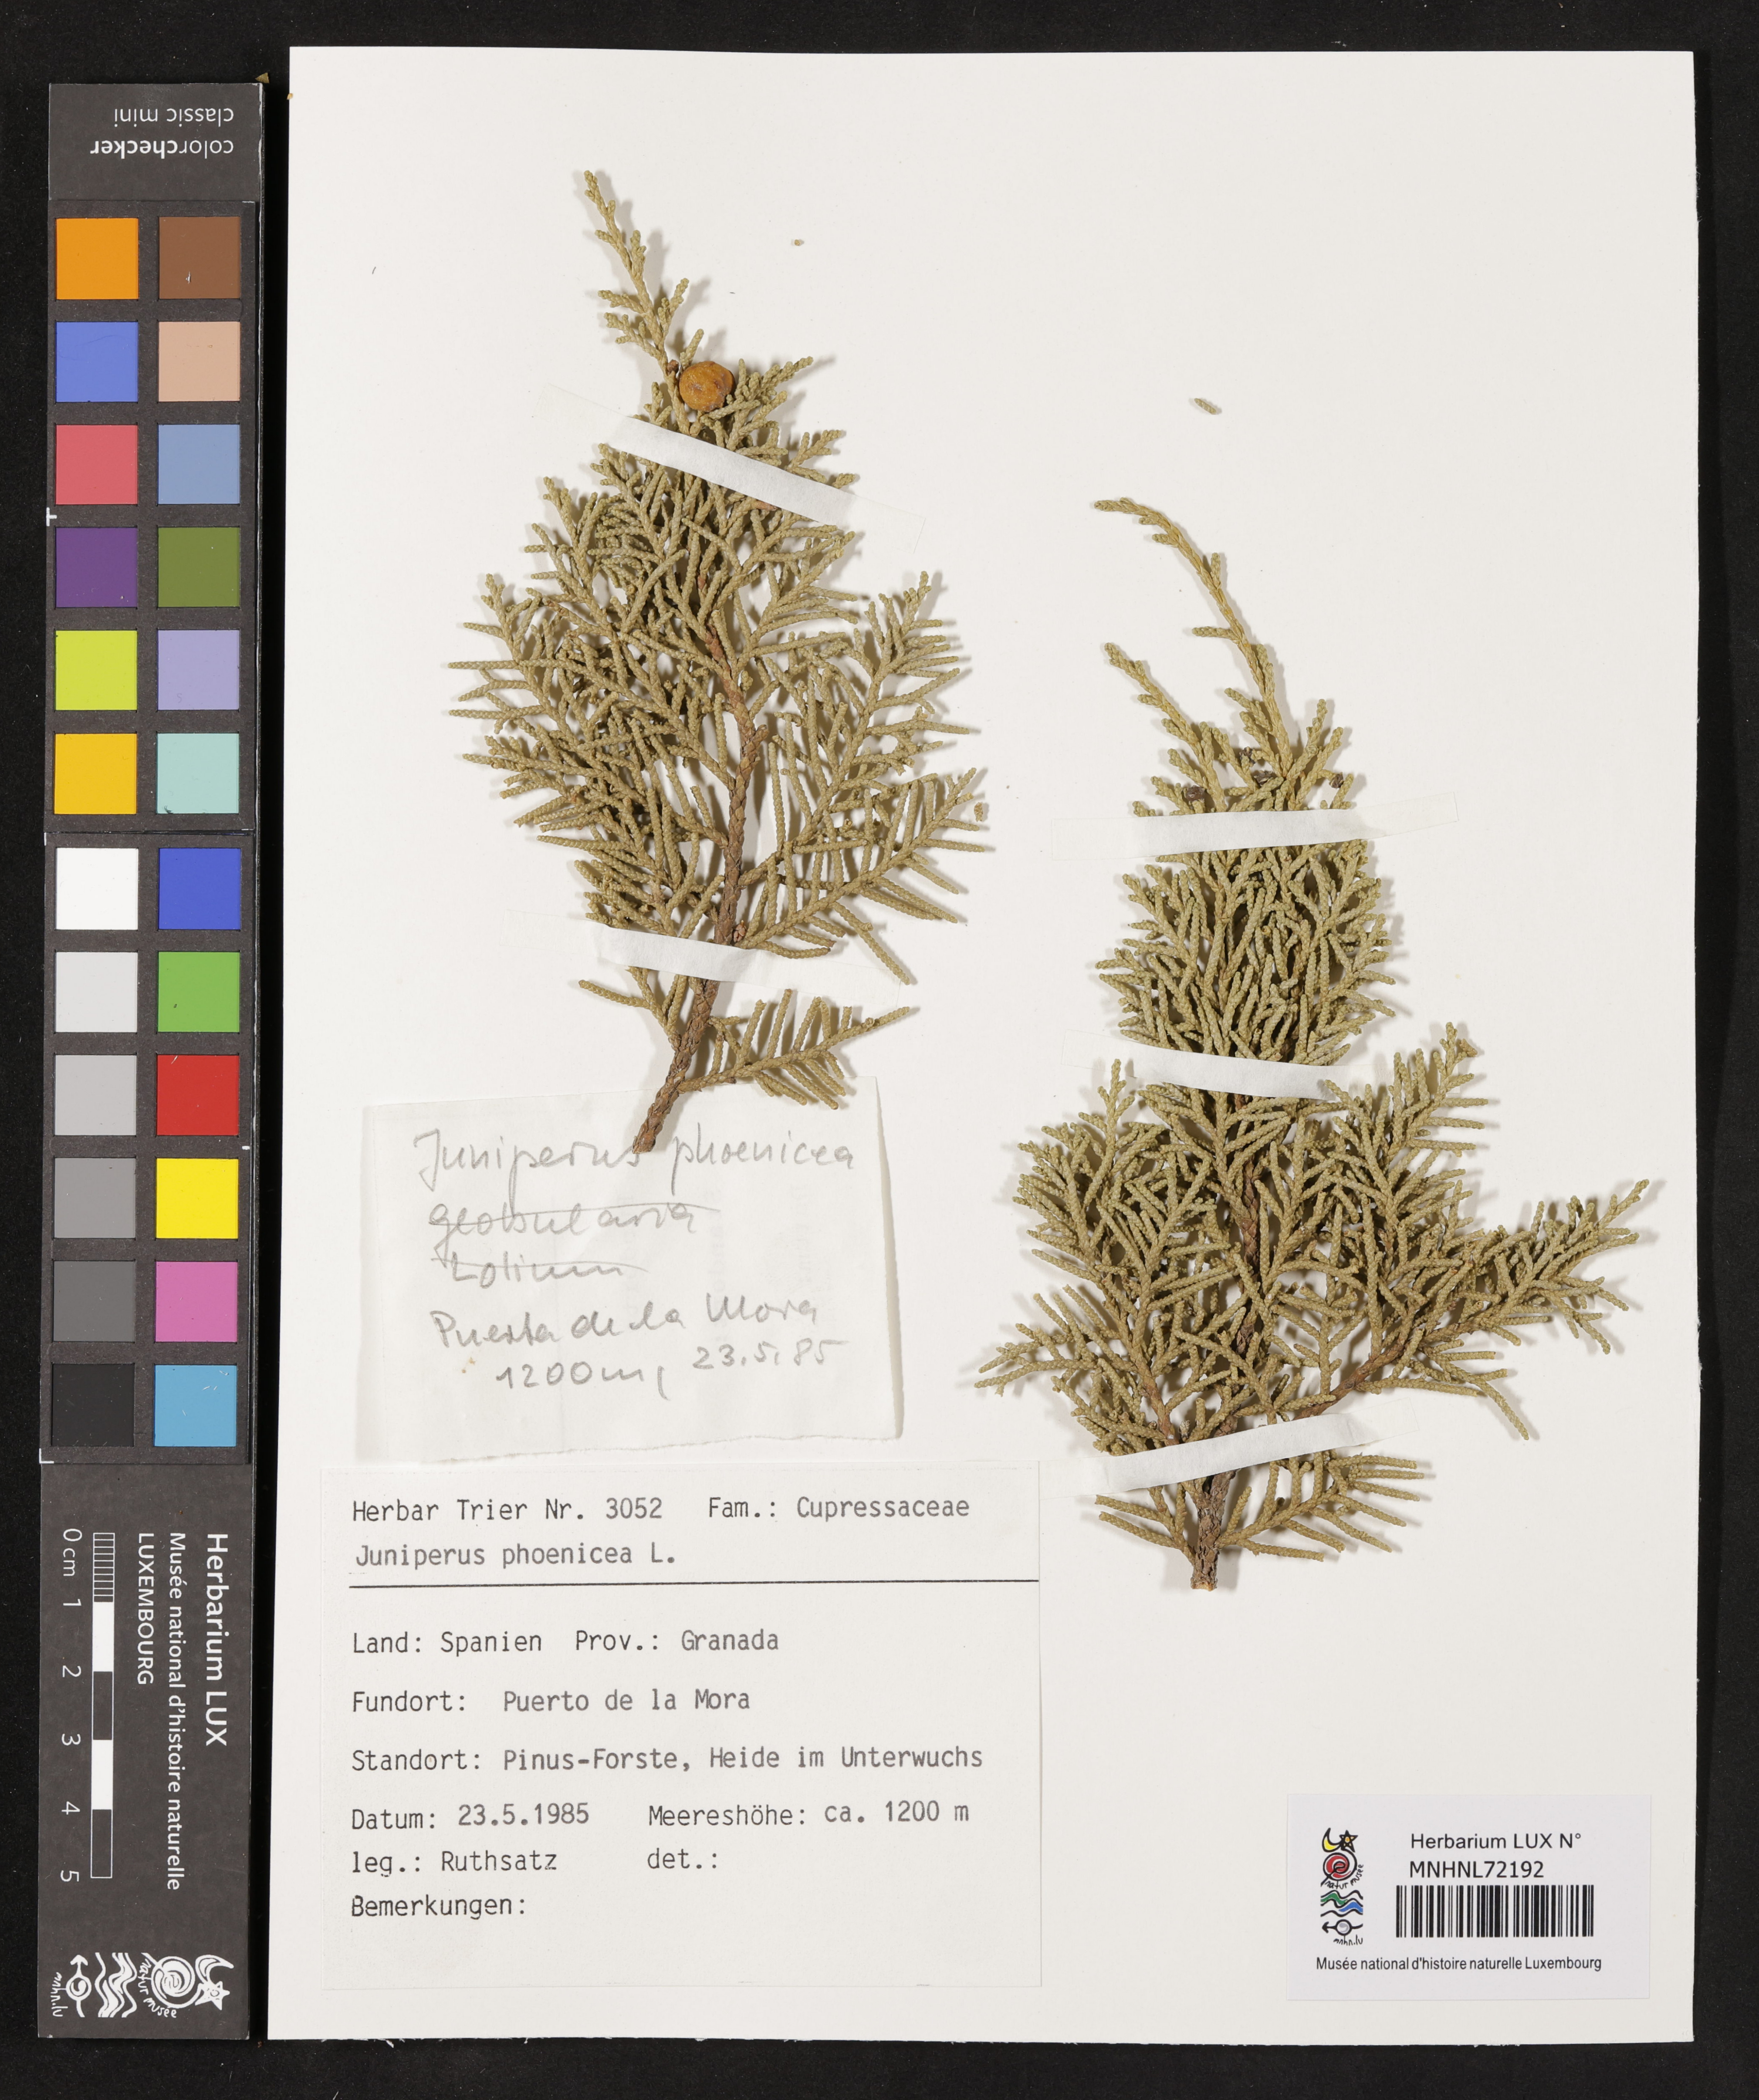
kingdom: Plantae
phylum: Tracheophyta
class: Pinopsida
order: Pinales
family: Cupressaceae
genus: Juniperus
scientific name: Juniperus phoenicea
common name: Phoenician juniper
